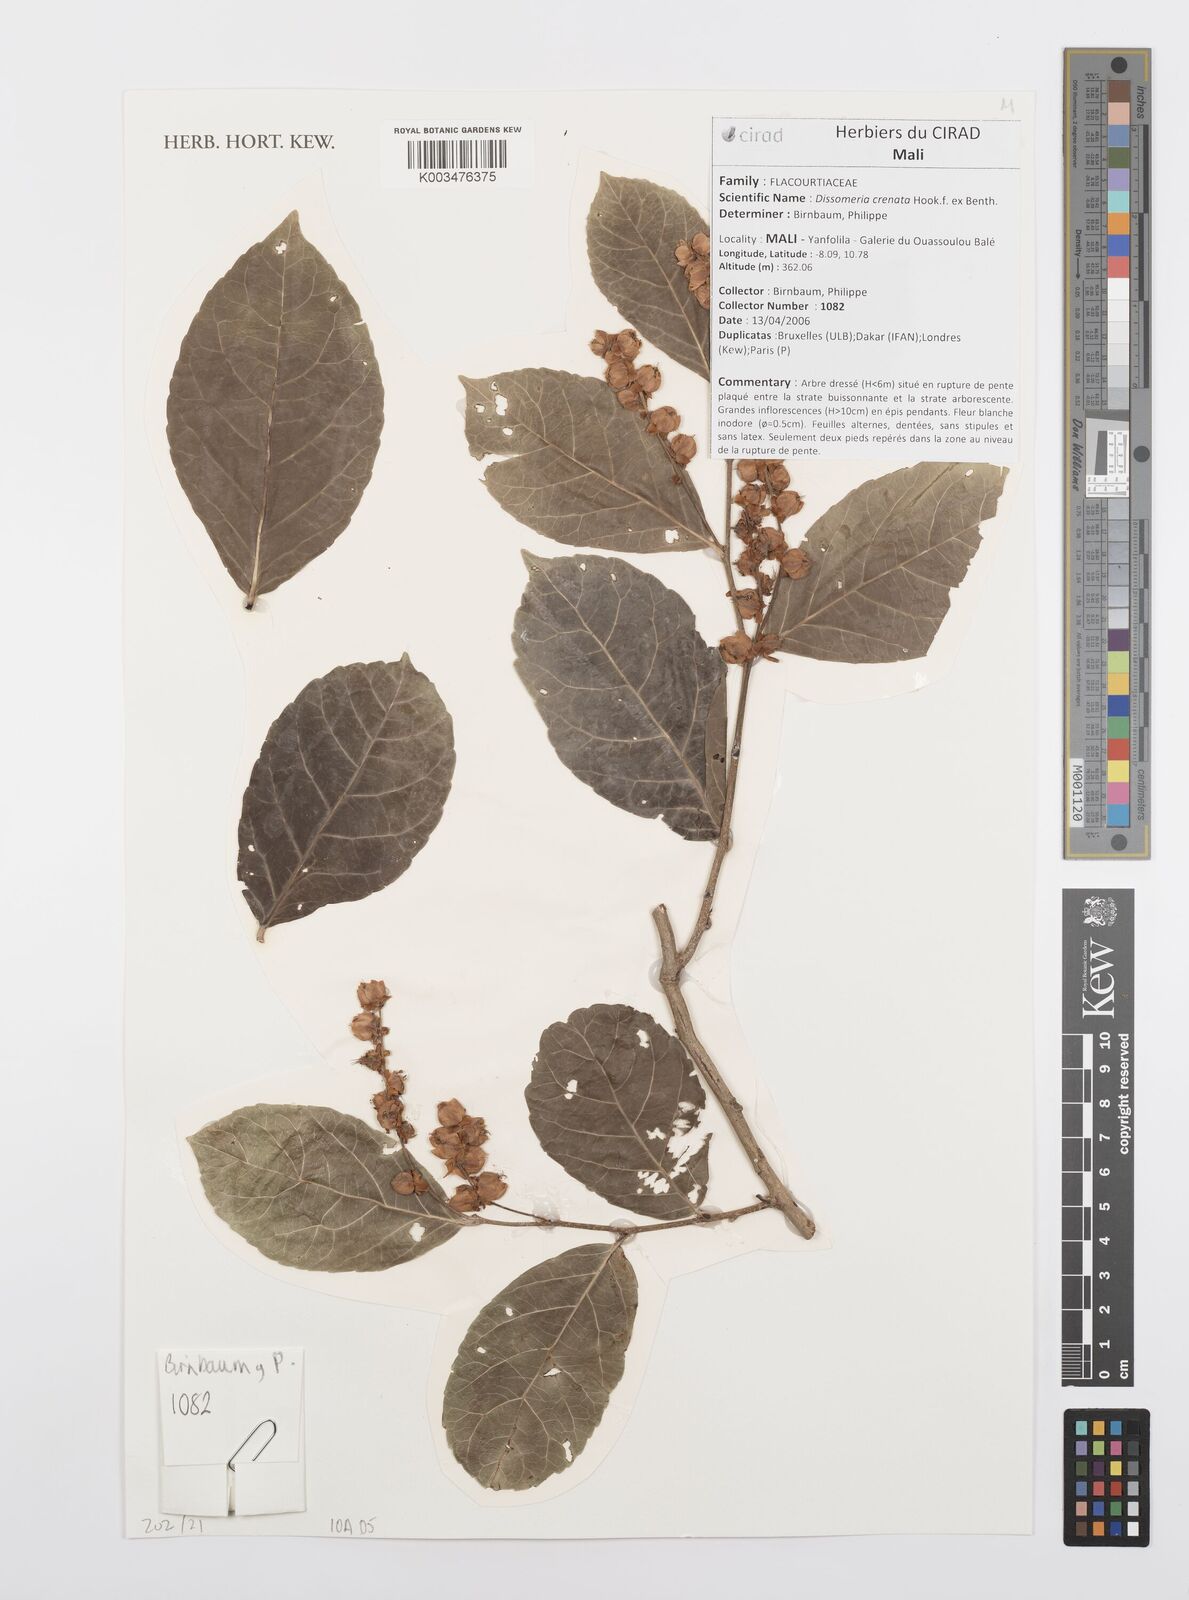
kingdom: Plantae
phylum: Tracheophyta
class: Magnoliopsida
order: Malpighiales
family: Salicaceae
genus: Dissomeria
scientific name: Dissomeria crenata
